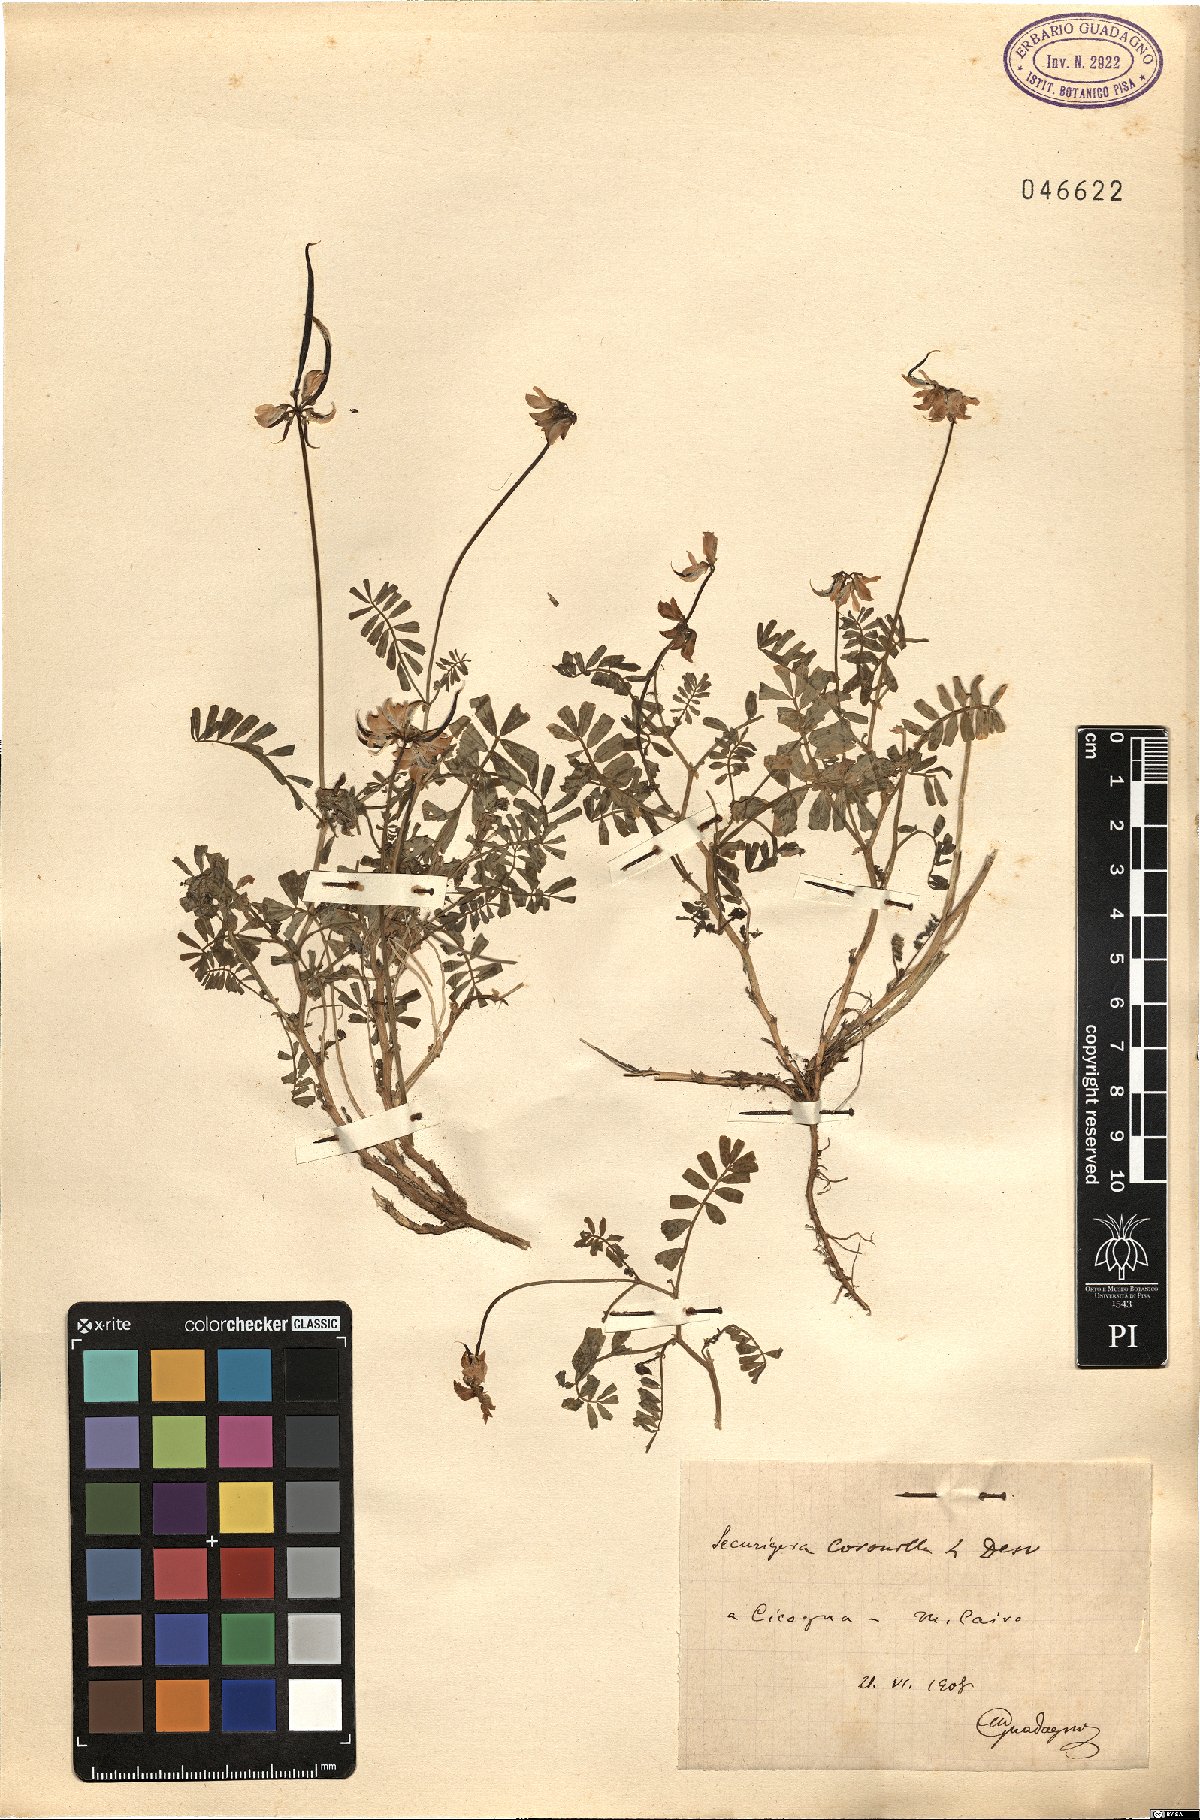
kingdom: Plantae
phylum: Tracheophyta
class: Magnoliopsida
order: Fabales
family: Fabaceae
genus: Coronilla
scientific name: Coronilla securidaca
